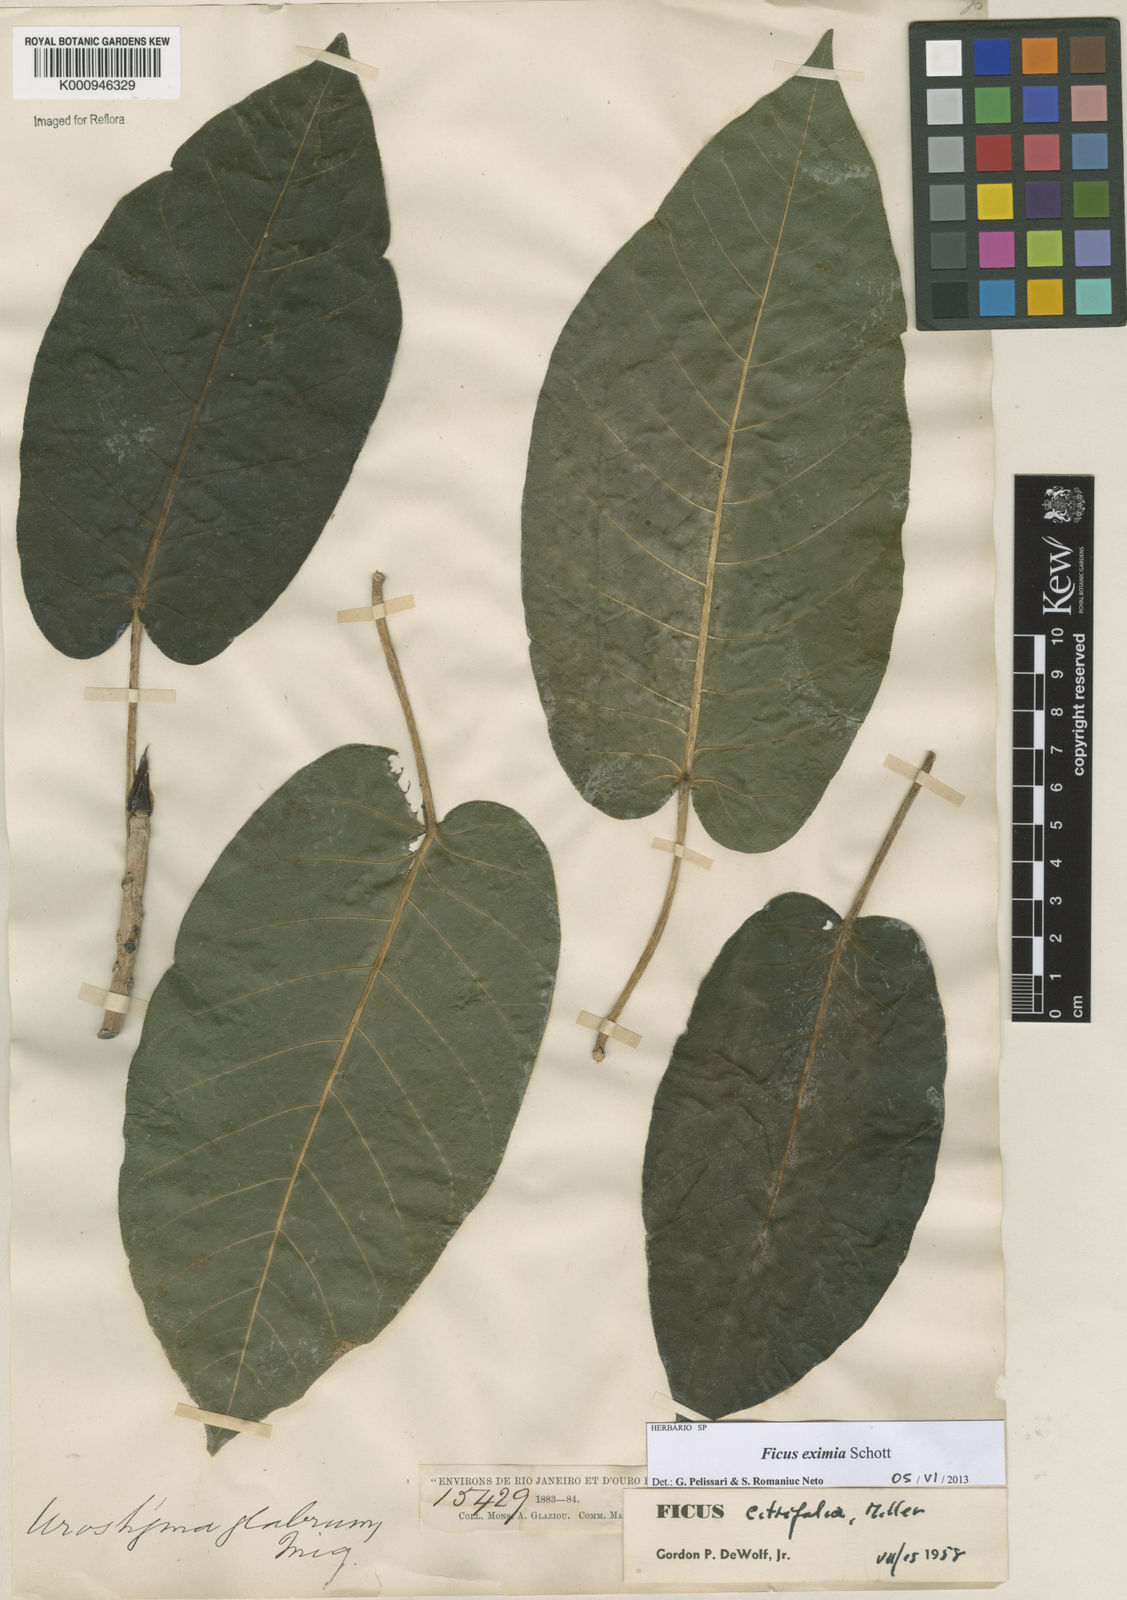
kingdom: Plantae
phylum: Tracheophyta
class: Magnoliopsida
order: Rosales
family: Moraceae
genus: Ficus
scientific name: Ficus eximia
